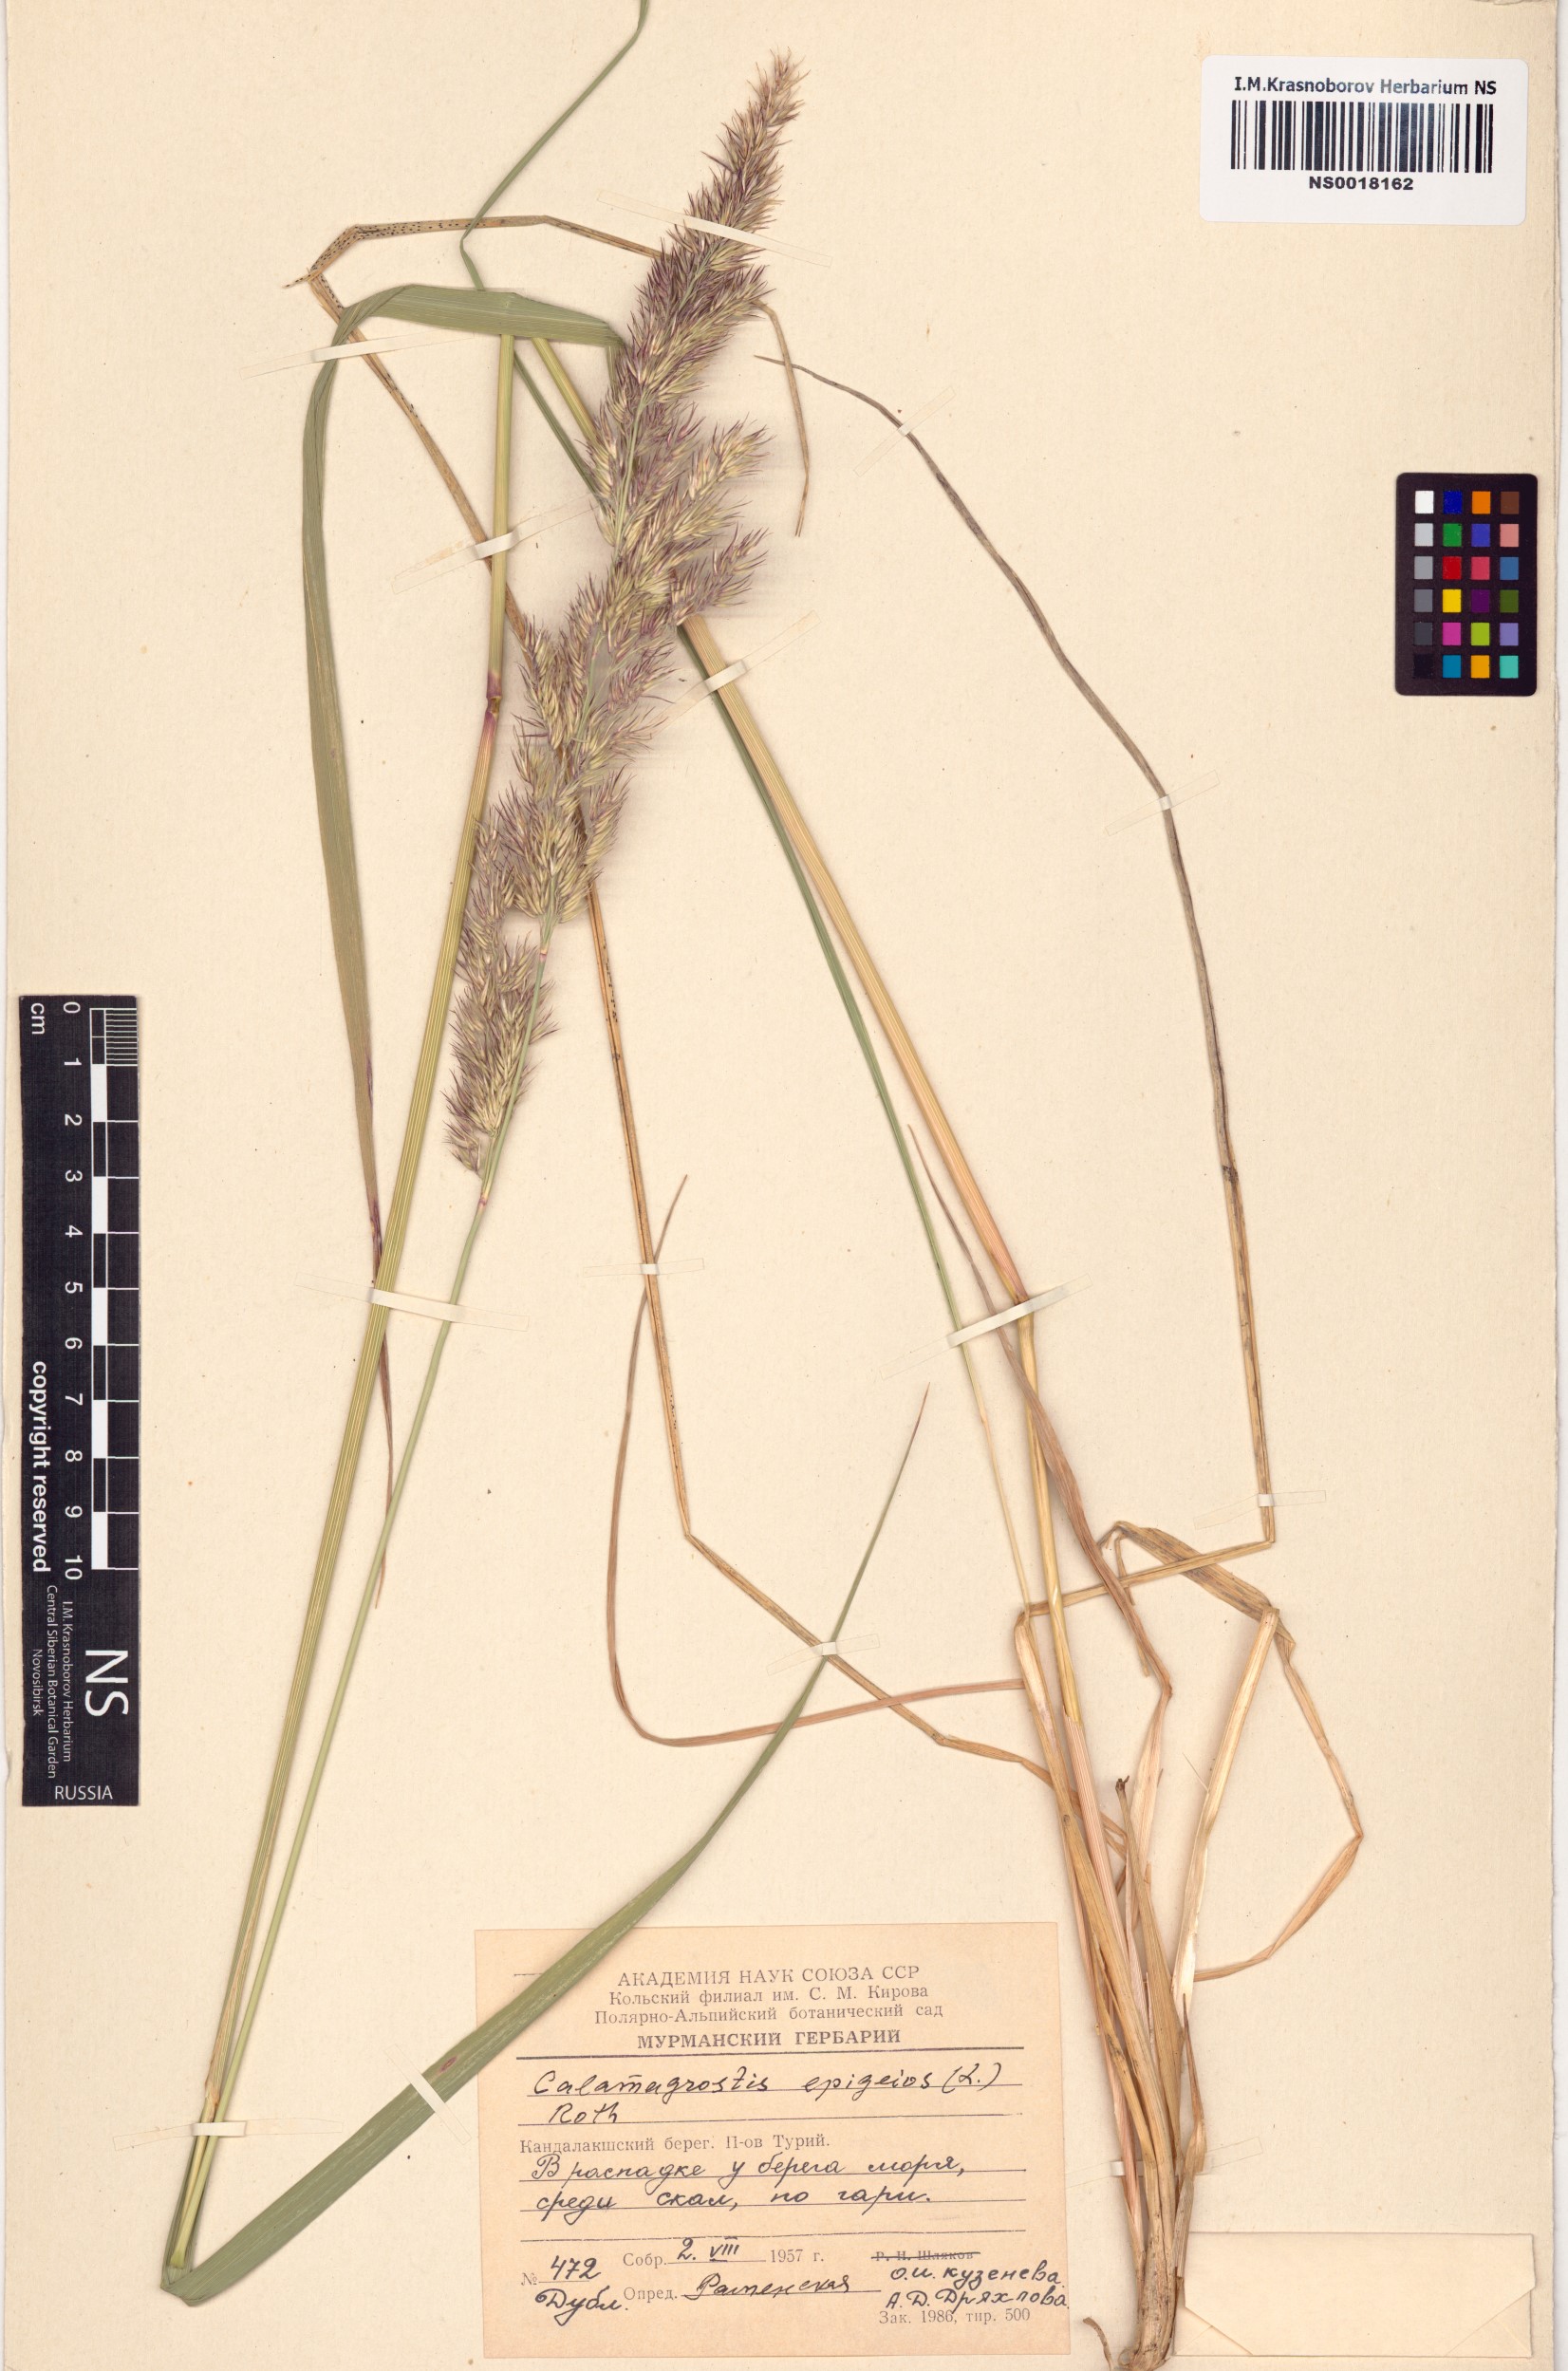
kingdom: Plantae
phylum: Tracheophyta
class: Liliopsida
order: Poales
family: Poaceae
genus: Calamagrostis
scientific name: Calamagrostis epigejos
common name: Wood small-reed
